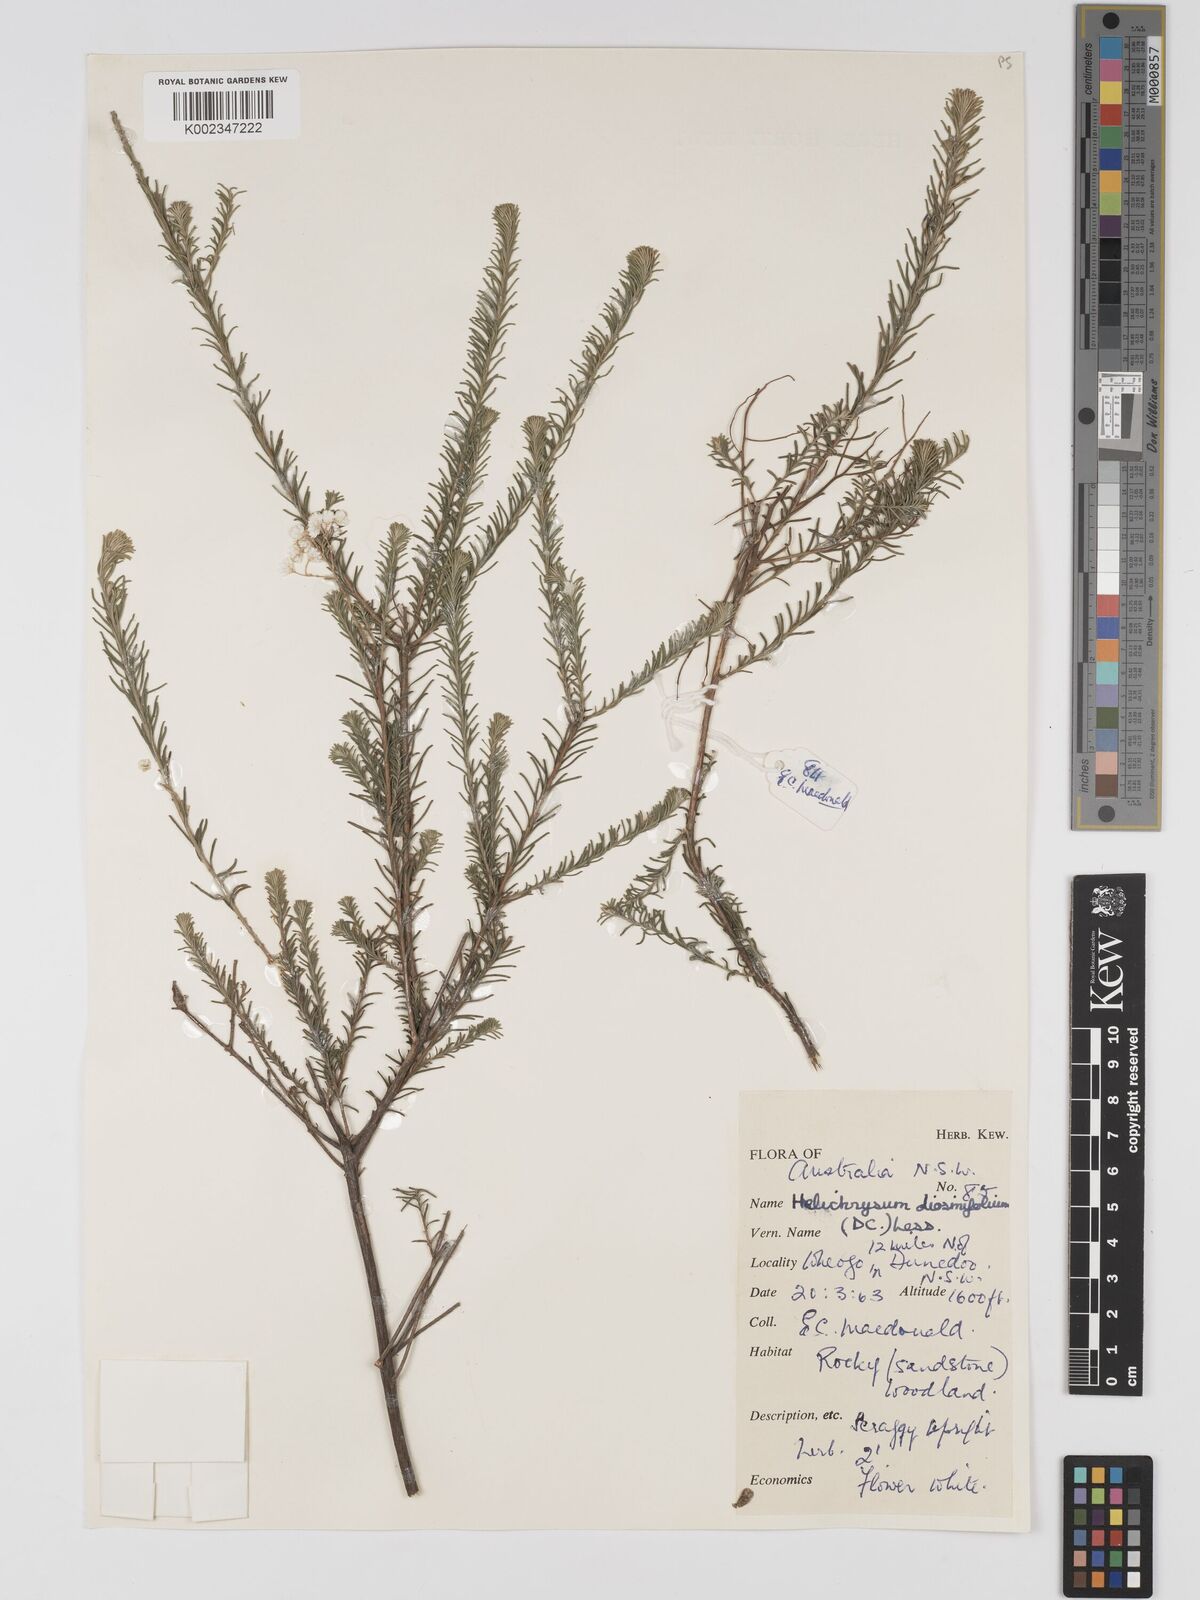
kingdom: Plantae
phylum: Tracheophyta
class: Magnoliopsida
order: Asterales
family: Asteraceae
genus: Ozothamnus
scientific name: Ozothamnus diosmifolius
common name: White-dogwood
